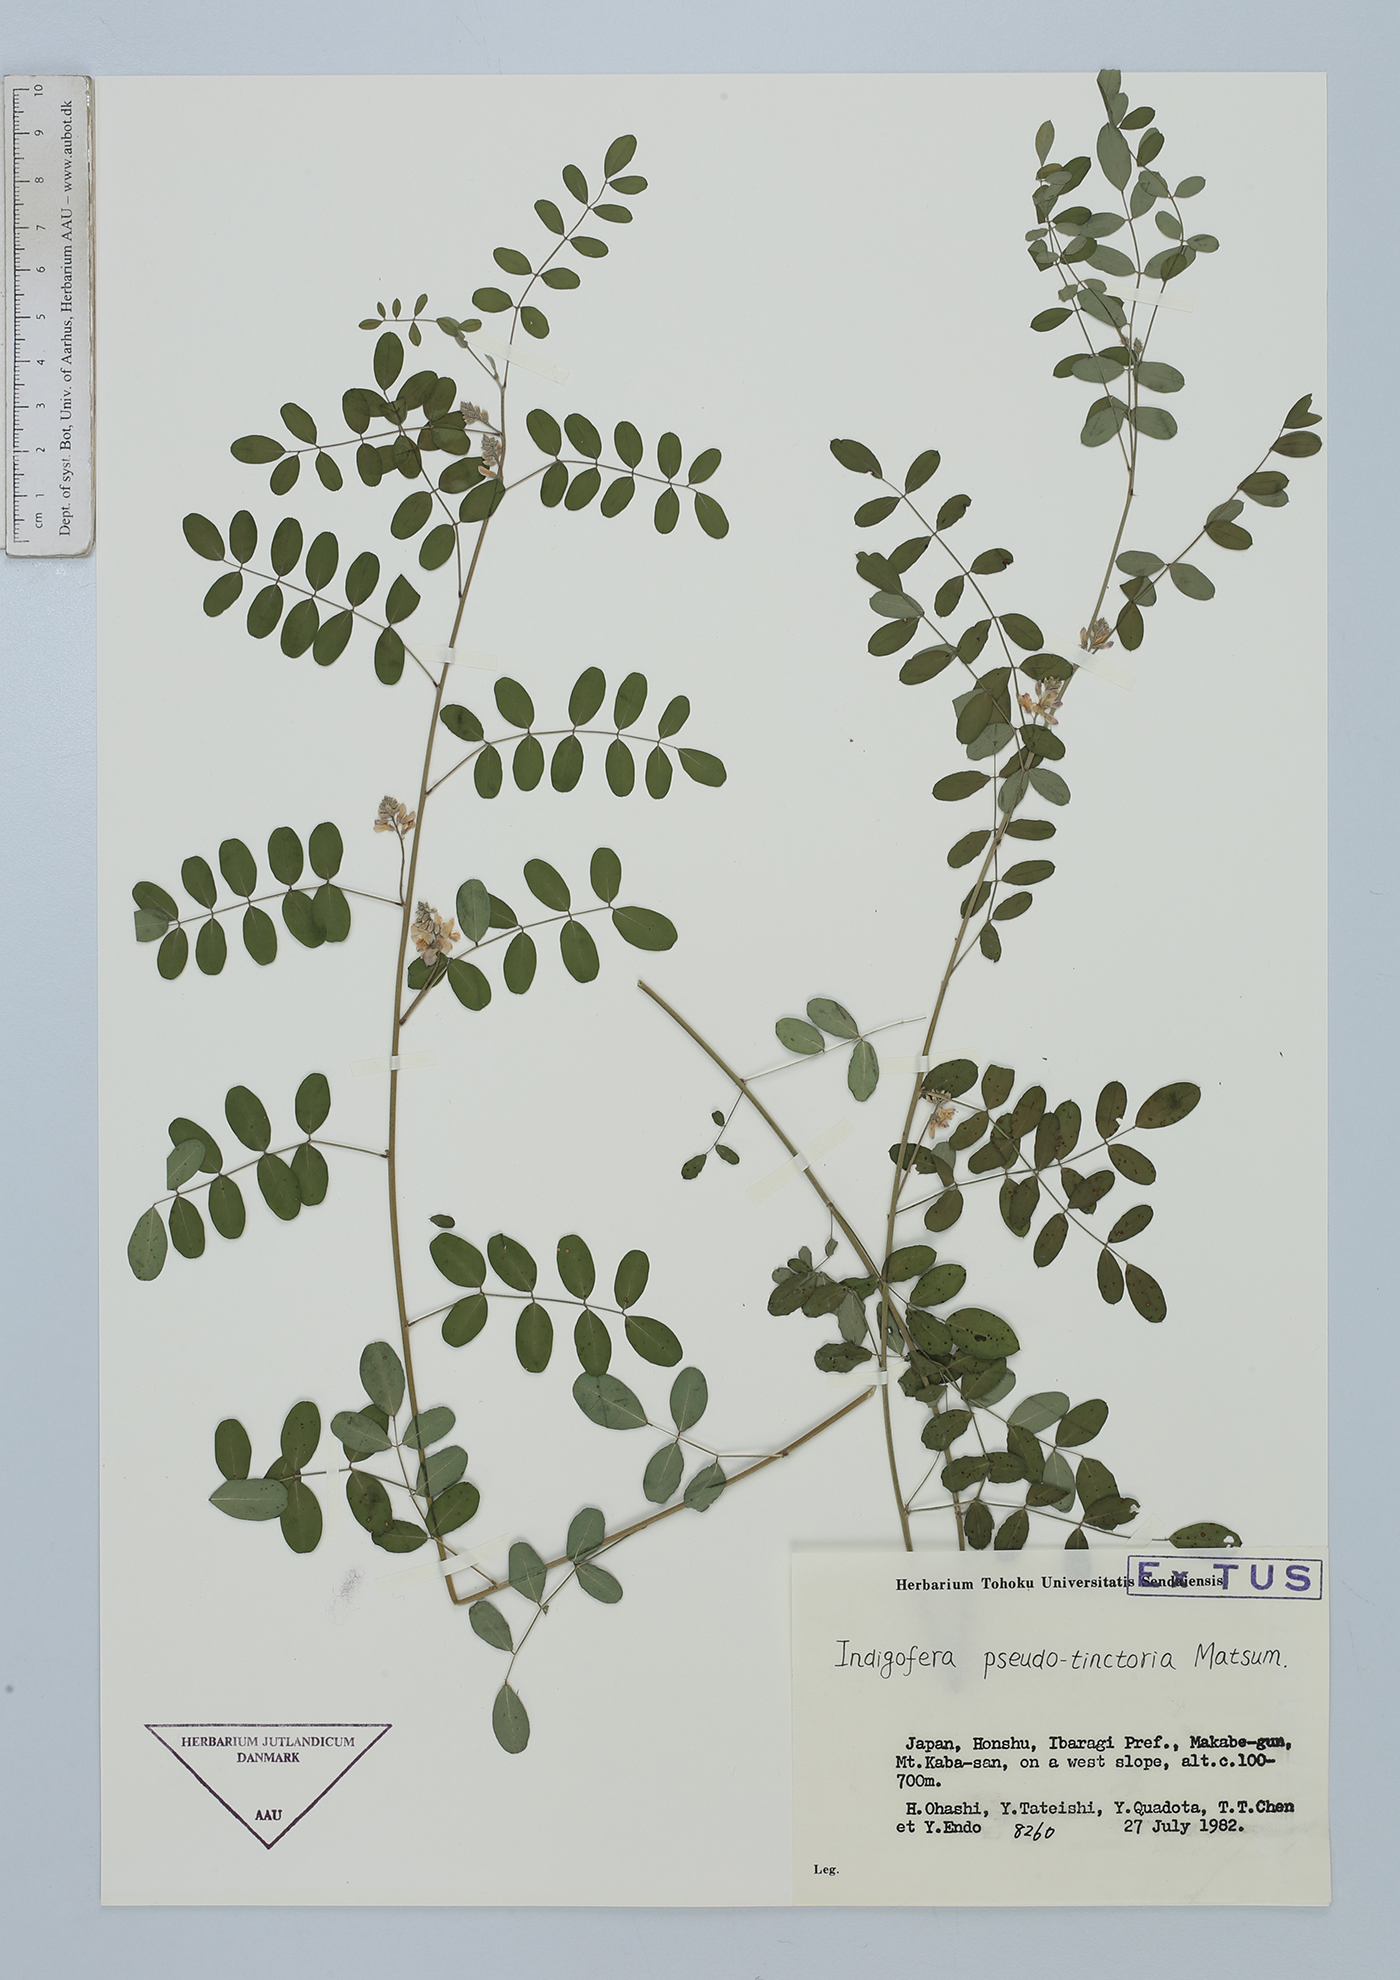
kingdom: Plantae
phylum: Tracheophyta
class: Magnoliopsida
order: Fabales
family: Fabaceae
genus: Indigofera
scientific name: Indigofera bungeana
